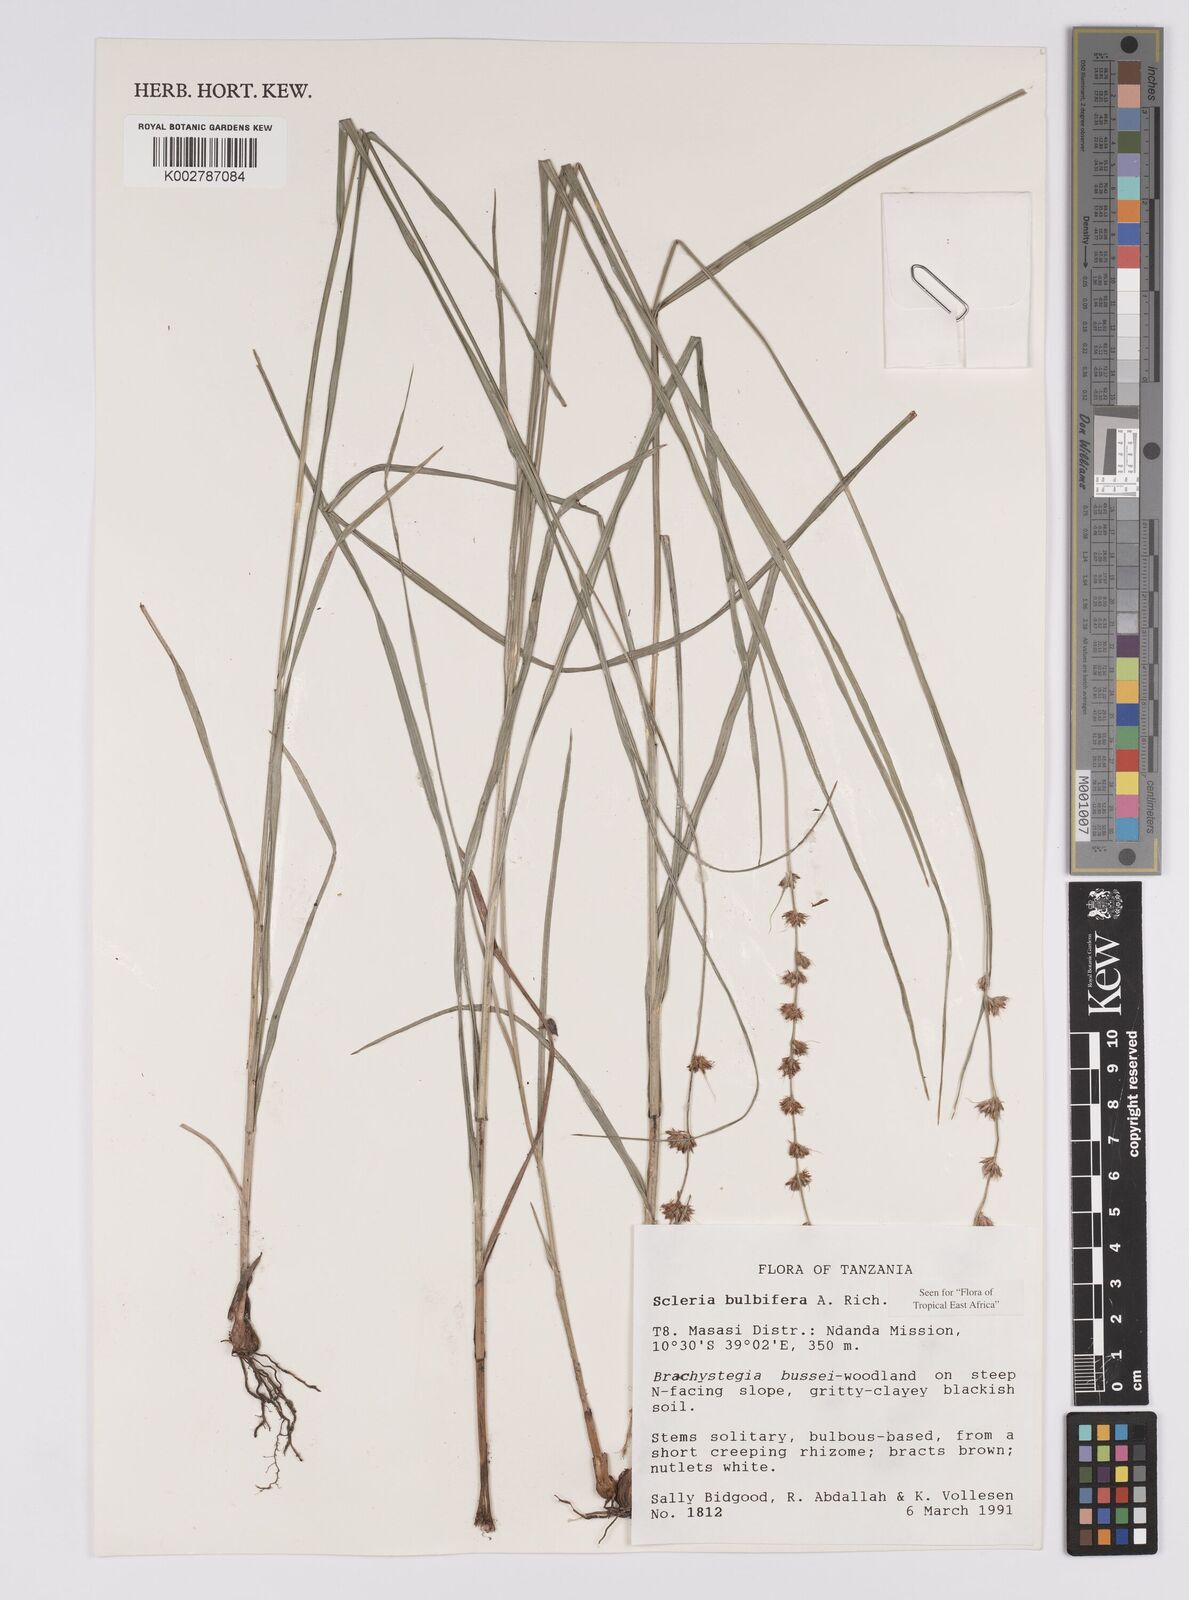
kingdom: Plantae
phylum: Tracheophyta
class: Liliopsida
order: Poales
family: Cyperaceae
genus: Scleria
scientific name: Scleria bulbifera
